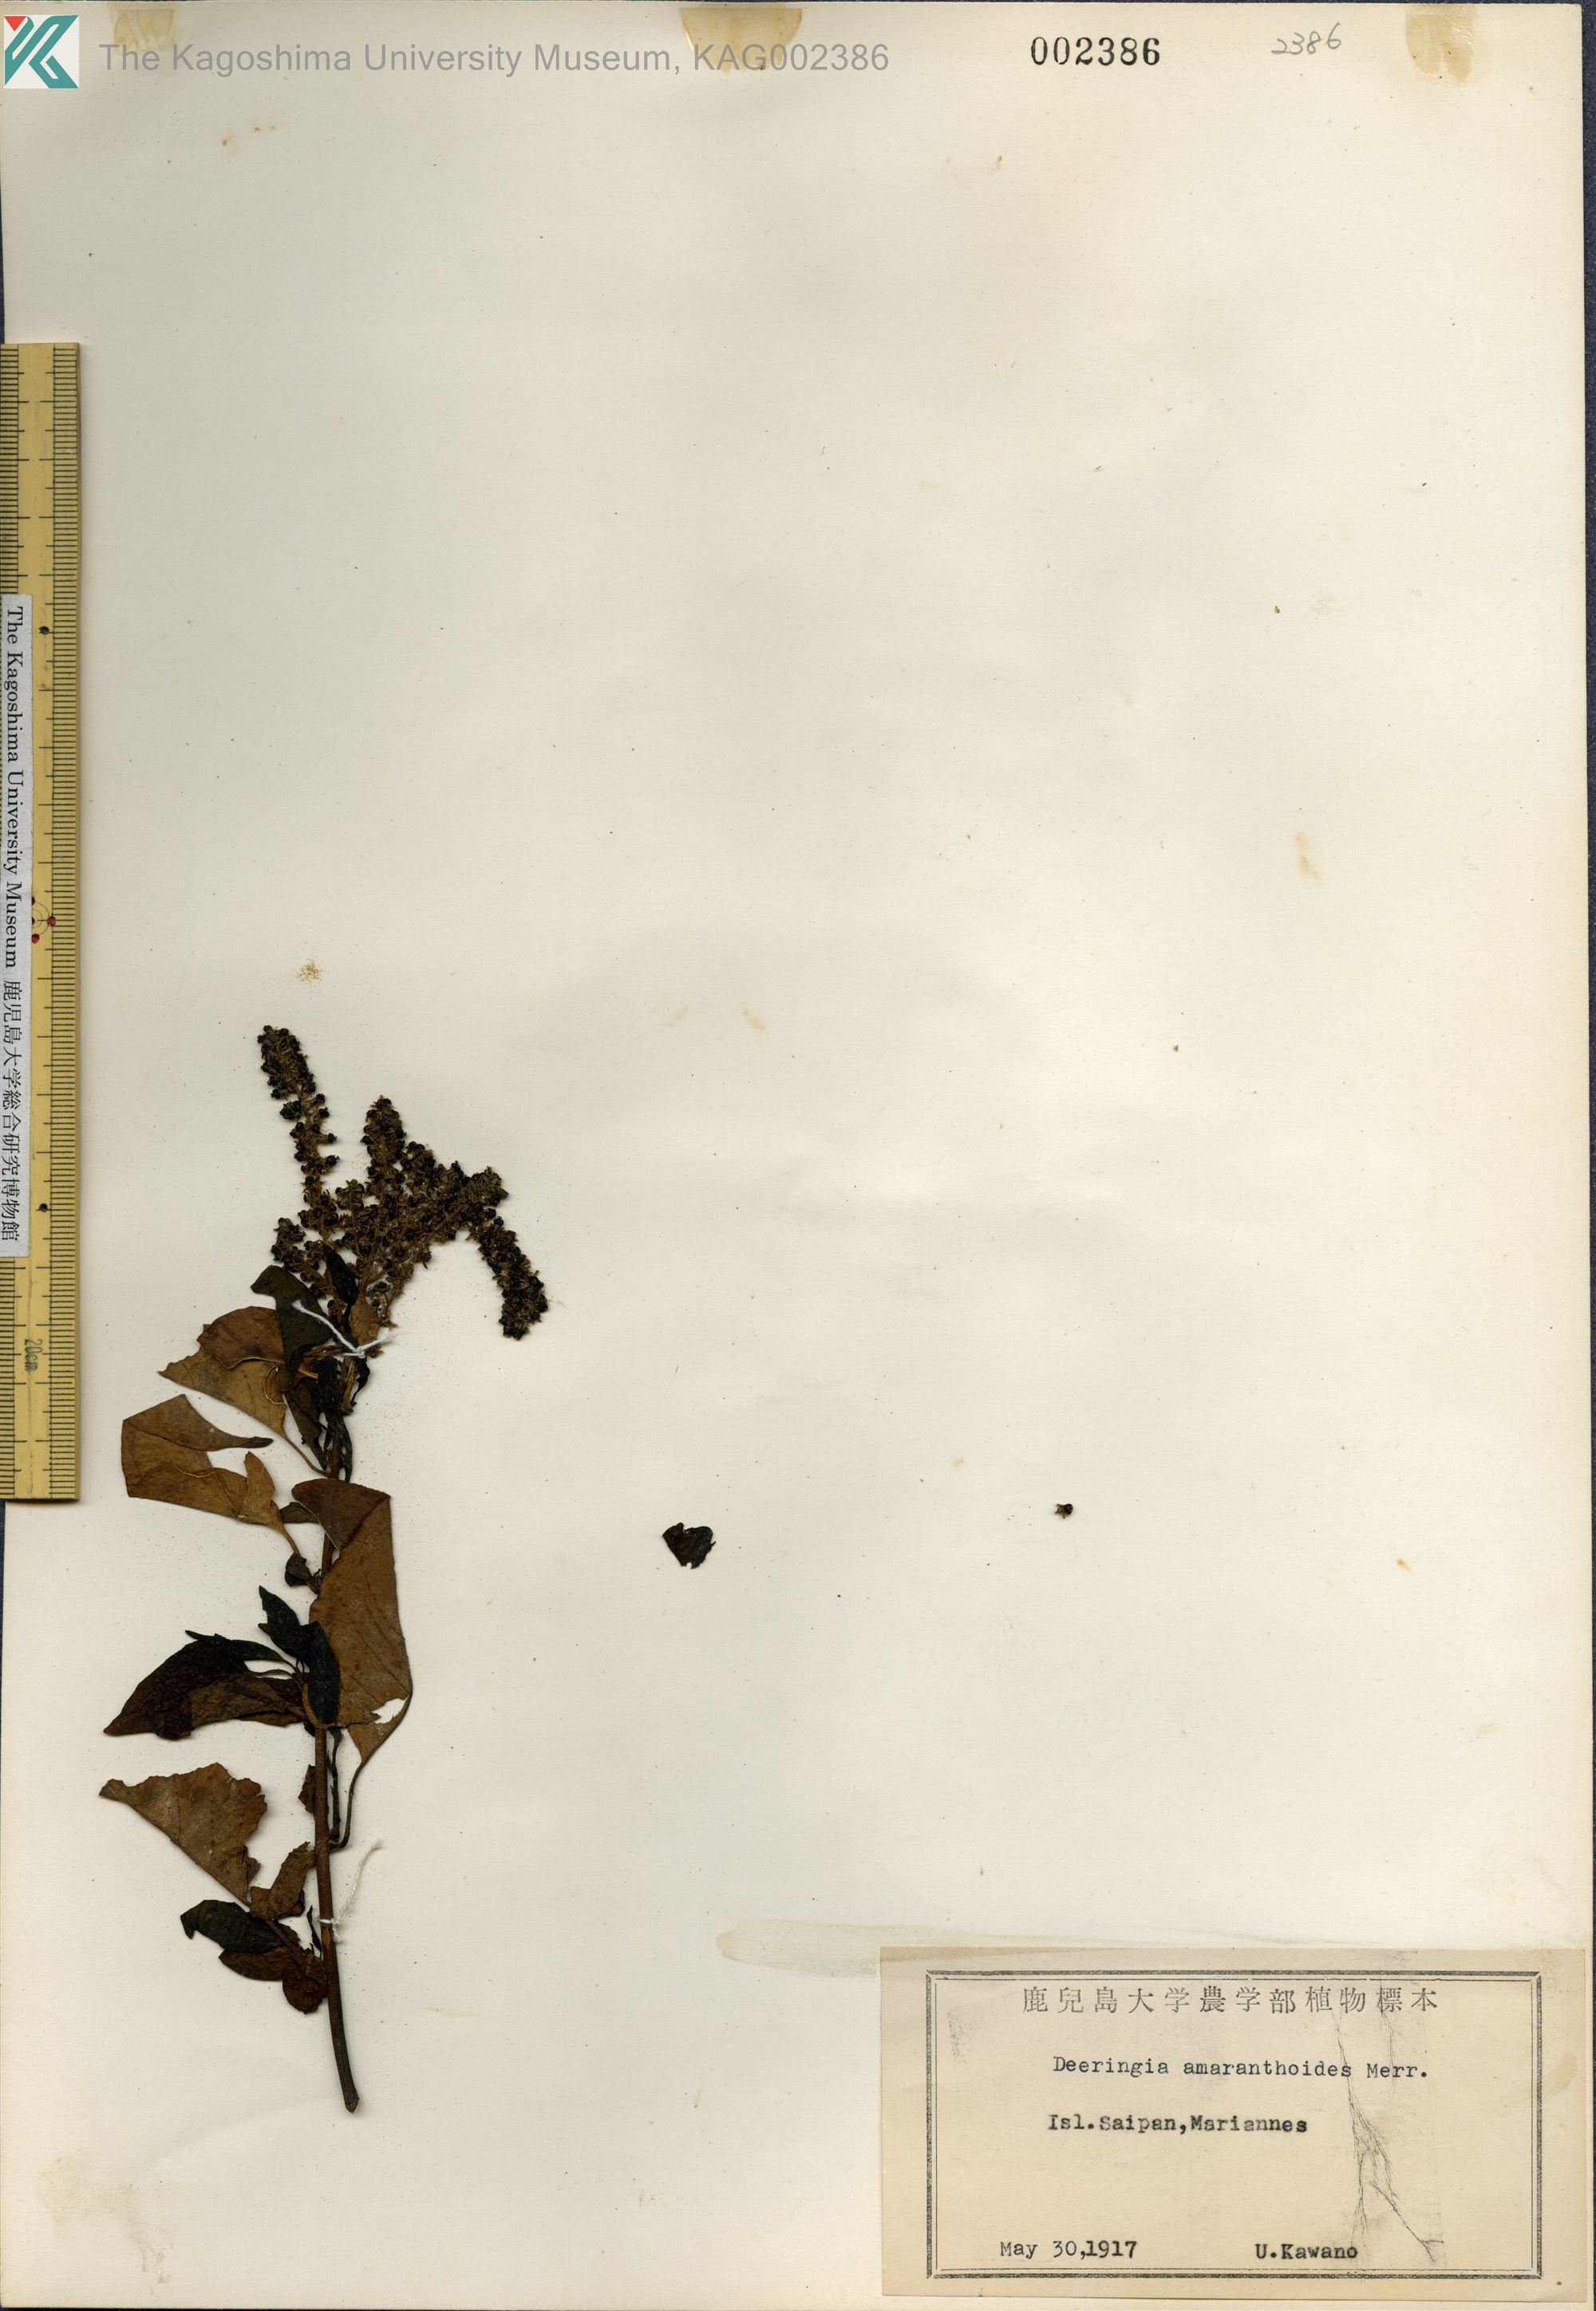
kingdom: Plantae
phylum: Tracheophyta
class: Magnoliopsida
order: Caryophyllales
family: Amaranthaceae
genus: Deeringia
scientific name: Deeringia amaranthoides
